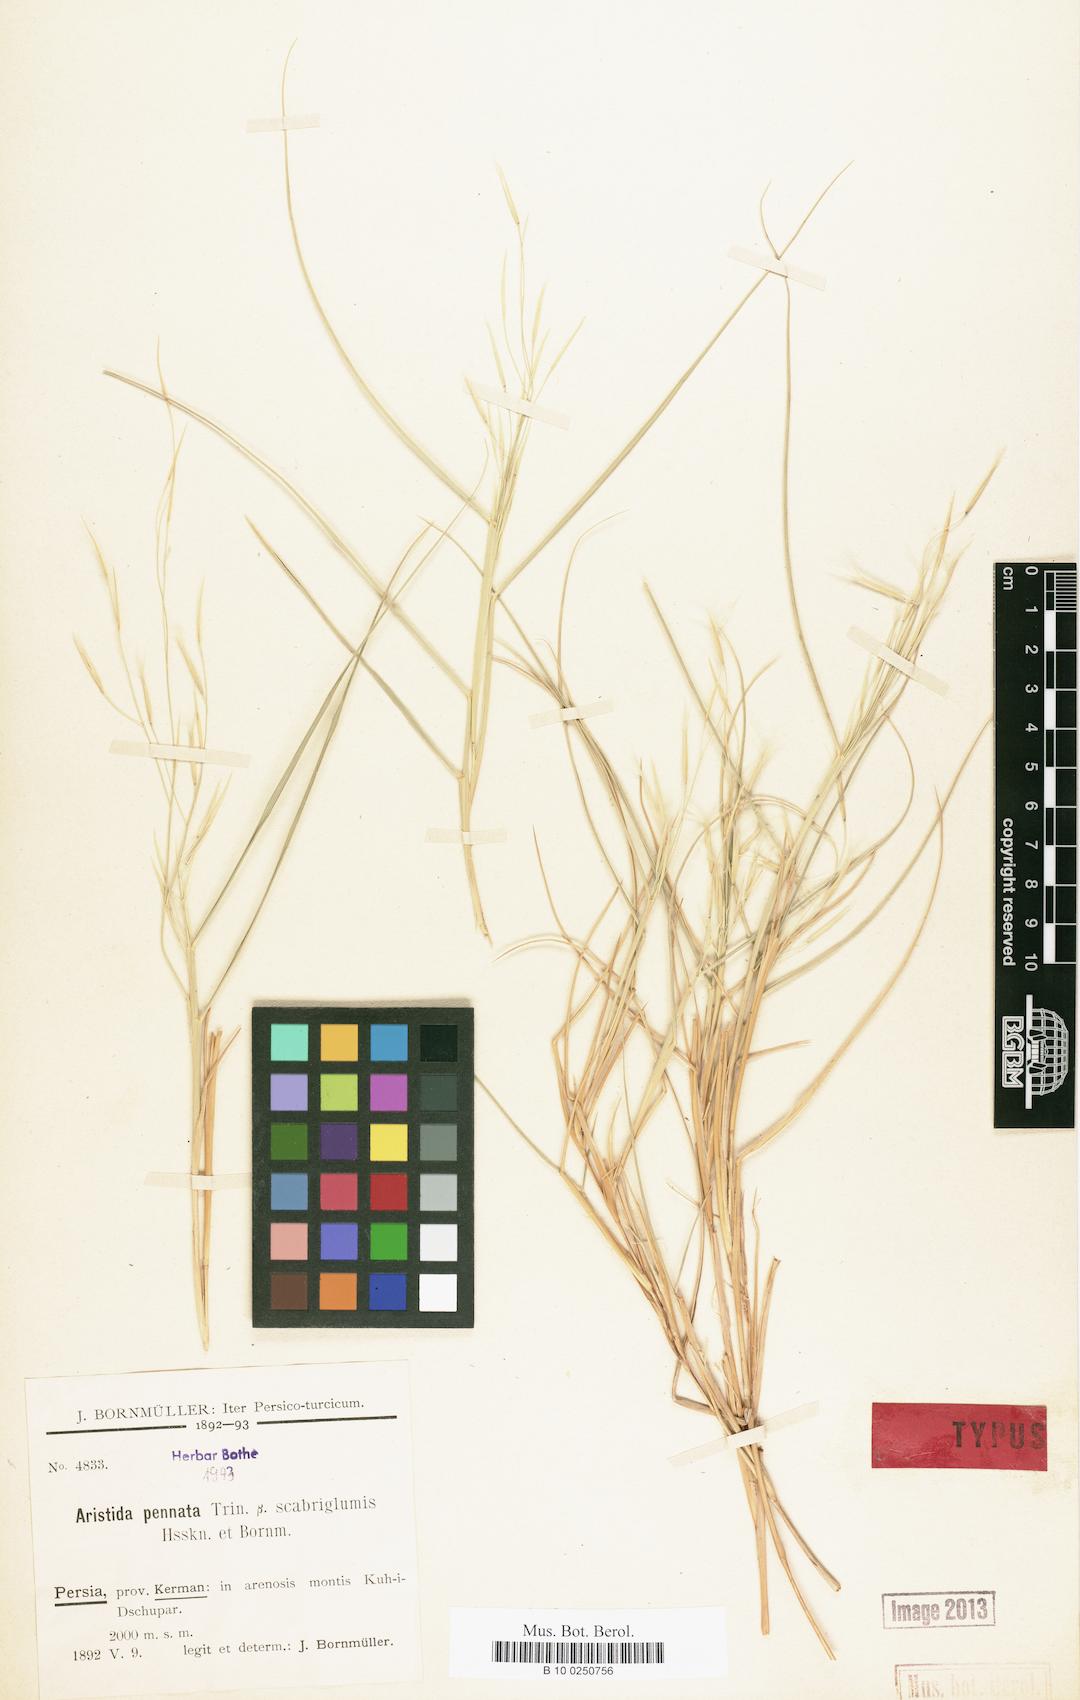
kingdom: Plantae
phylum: Tracheophyta
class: Liliopsida
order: Poales
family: Poaceae
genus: Stipagrostis
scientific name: Stipagrostis pennata
